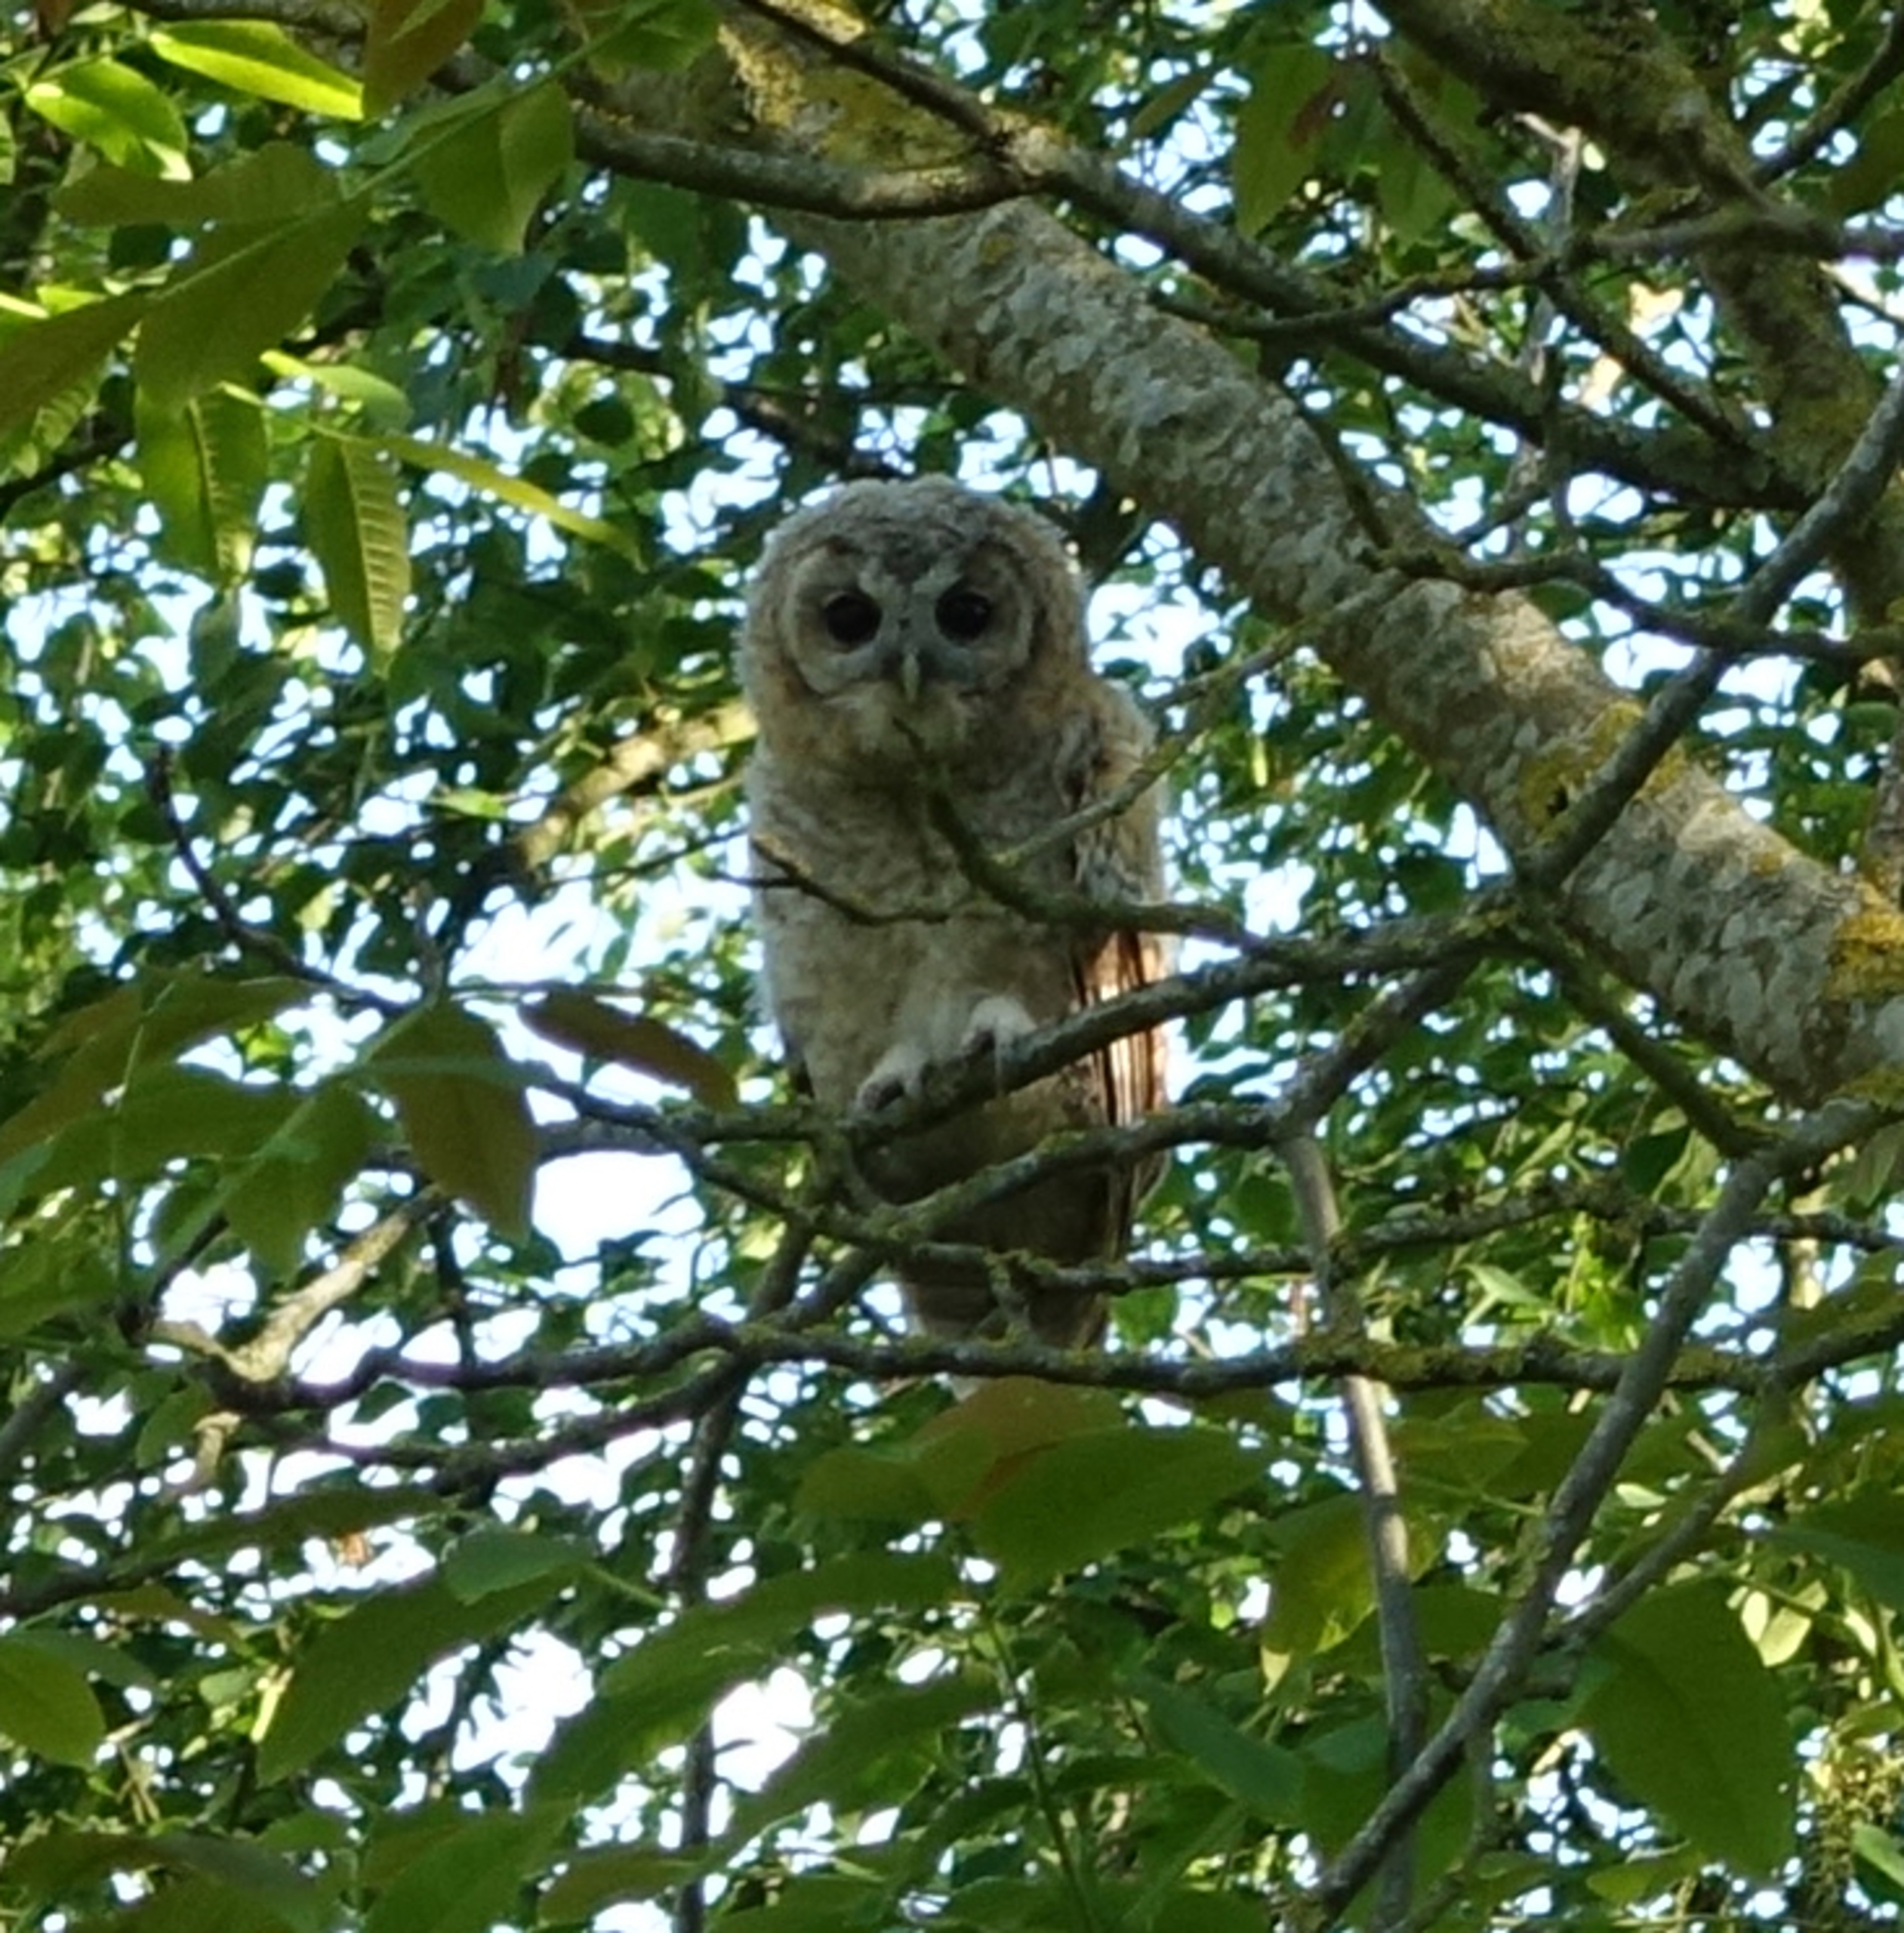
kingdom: Animalia
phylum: Chordata
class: Aves
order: Strigiformes
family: Strigidae
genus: Strix
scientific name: Strix aluco
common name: Natugle
